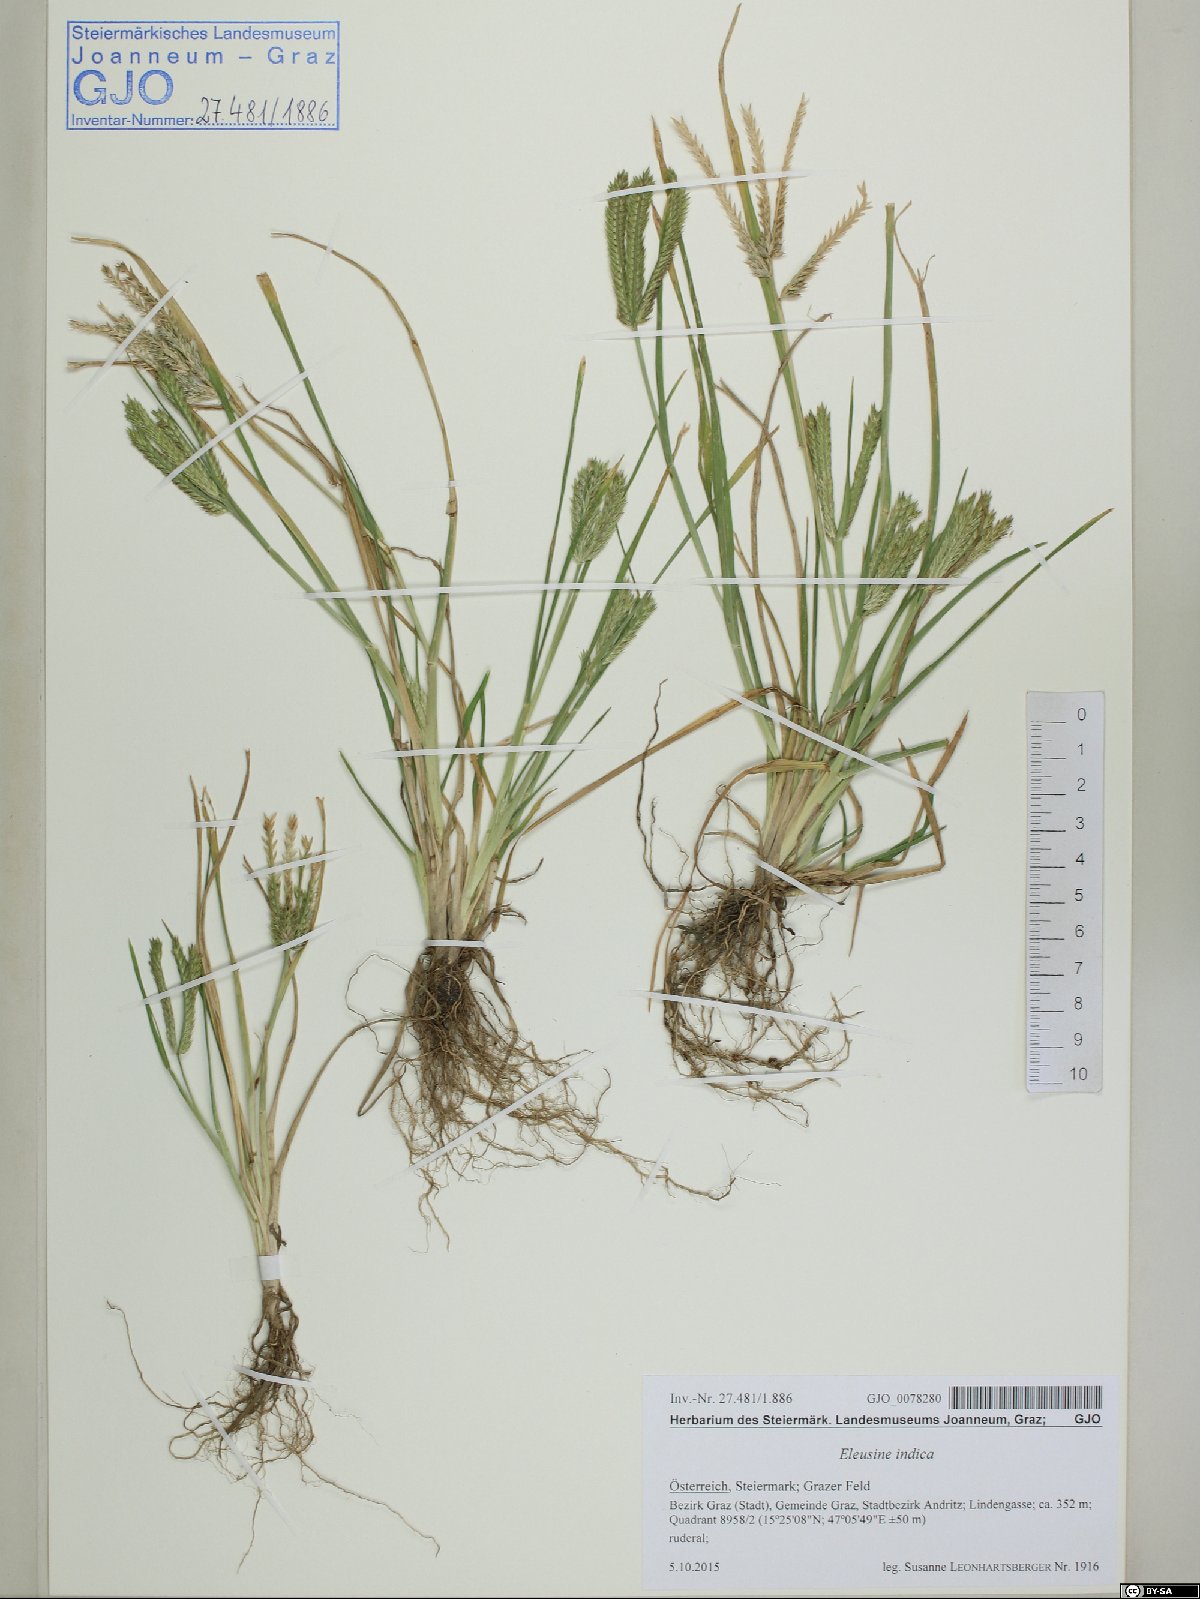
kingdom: Plantae
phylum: Tracheophyta
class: Liliopsida
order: Poales
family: Poaceae
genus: Eleusine
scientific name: Eleusine indica
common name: Yard-grass
